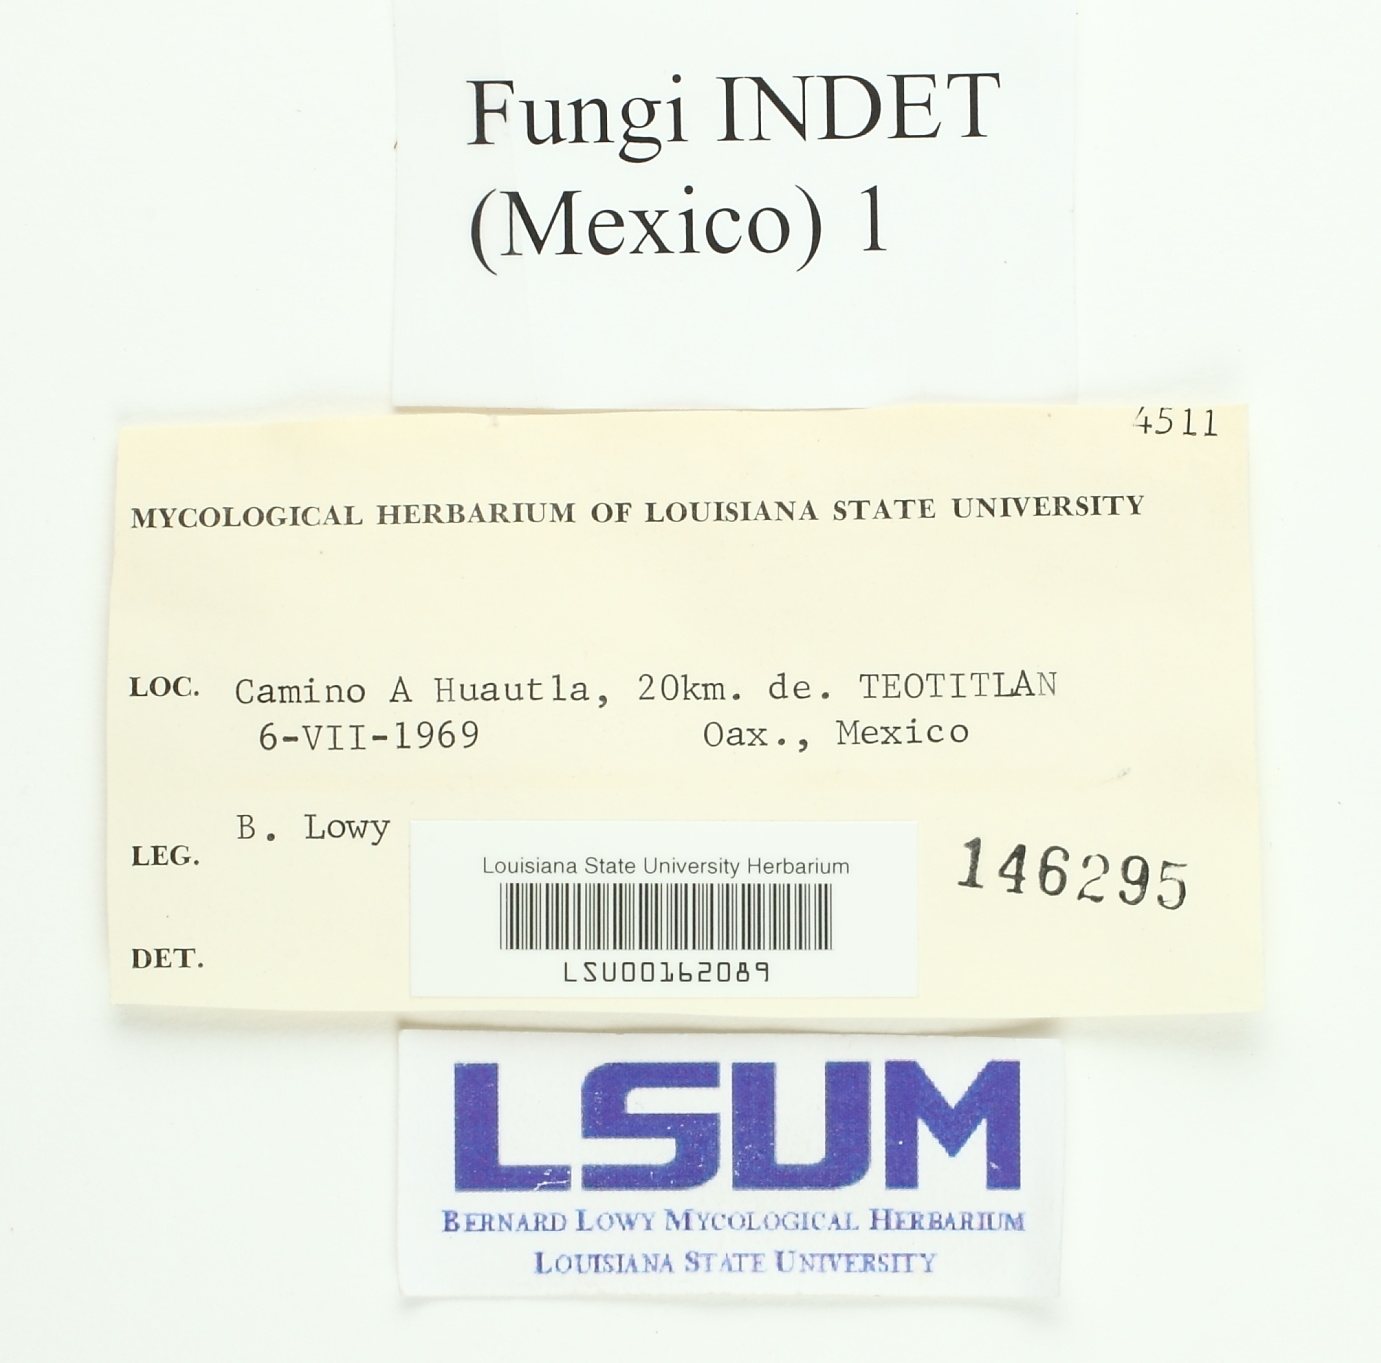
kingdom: Fungi
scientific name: Fungi
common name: Fungi
